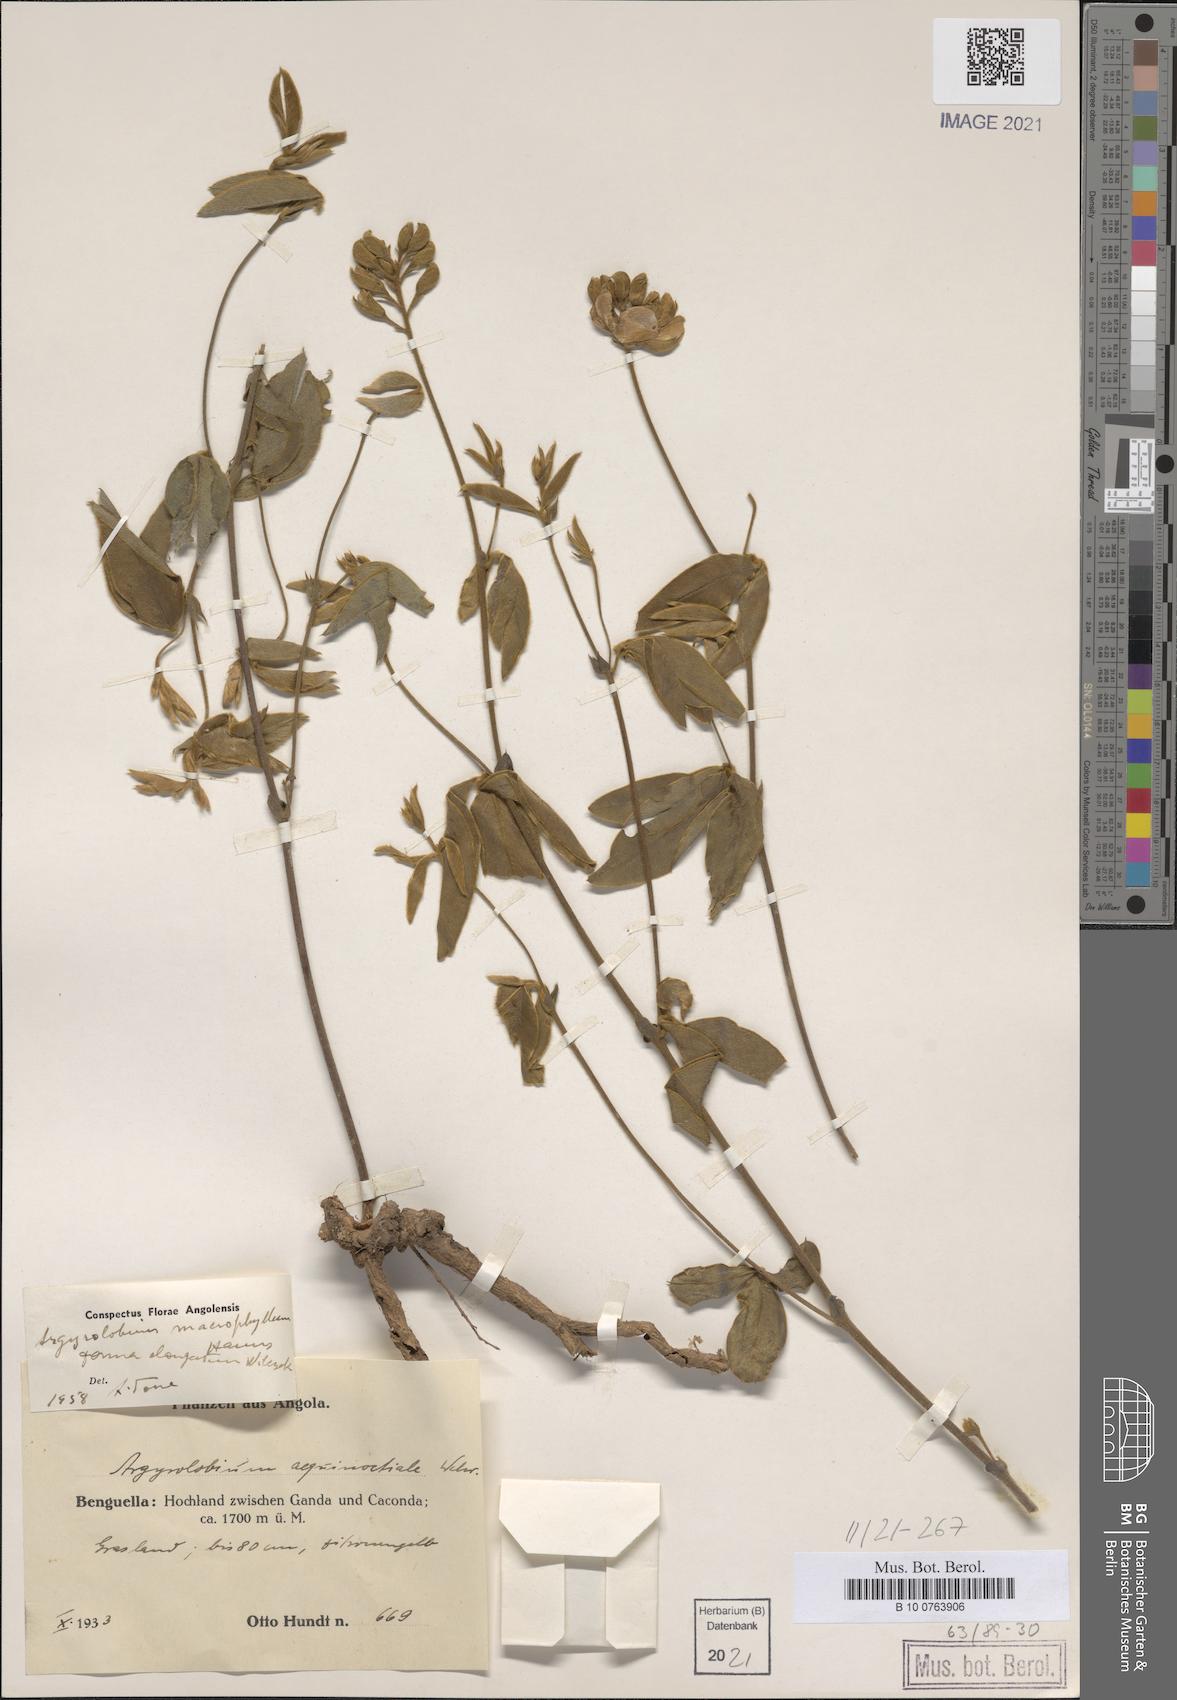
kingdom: Plantae
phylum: Tracheophyta
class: Magnoliopsida
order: Fabales
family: Fabaceae
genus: Argyrolobium
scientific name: Argyrolobium macrophyllum
